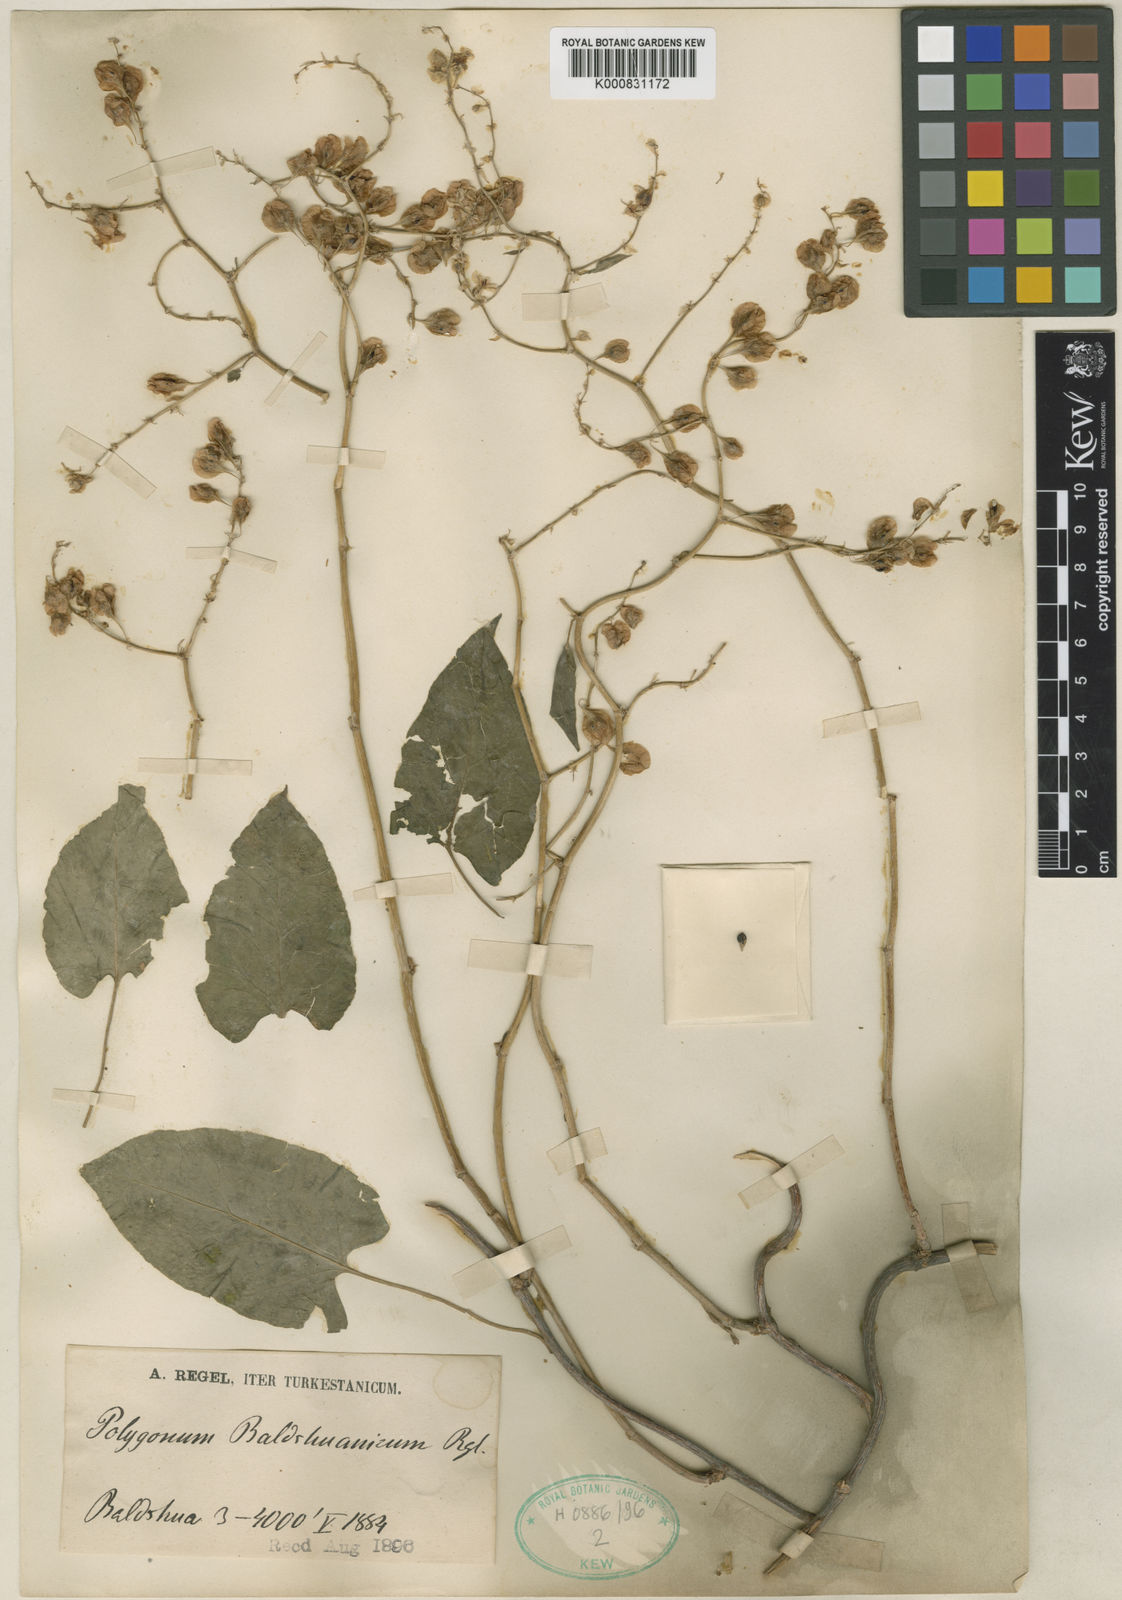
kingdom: Plantae
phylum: Tracheophyta
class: Magnoliopsida
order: Caryophyllales
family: Polygonaceae
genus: Fallopia
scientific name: Fallopia baldschuanica
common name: Russian-vine
